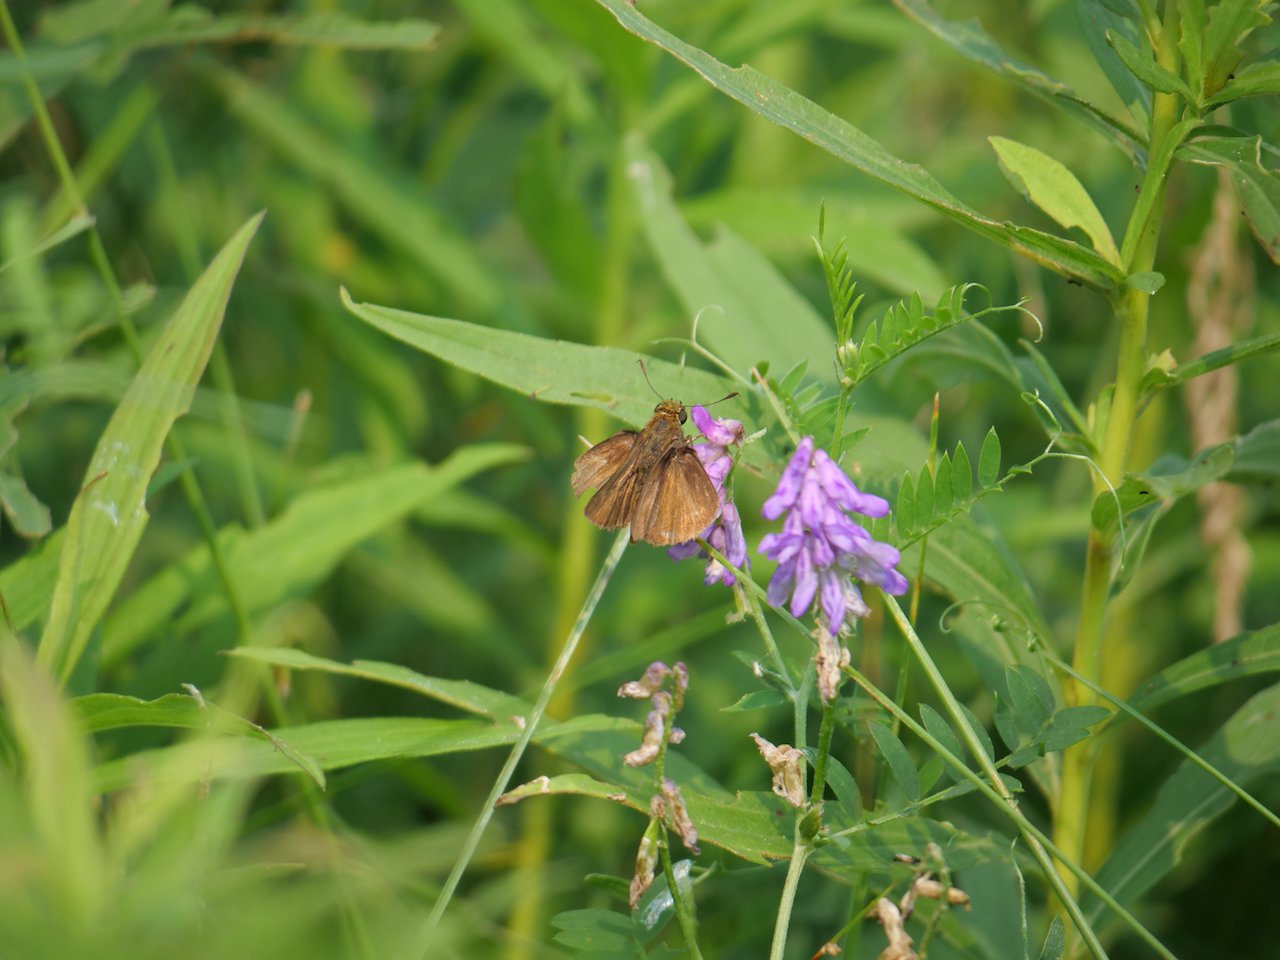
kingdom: Animalia
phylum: Arthropoda
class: Insecta
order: Lepidoptera
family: Hesperiidae
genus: Euphyes
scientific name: Euphyes vestris
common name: Dun Skipper
